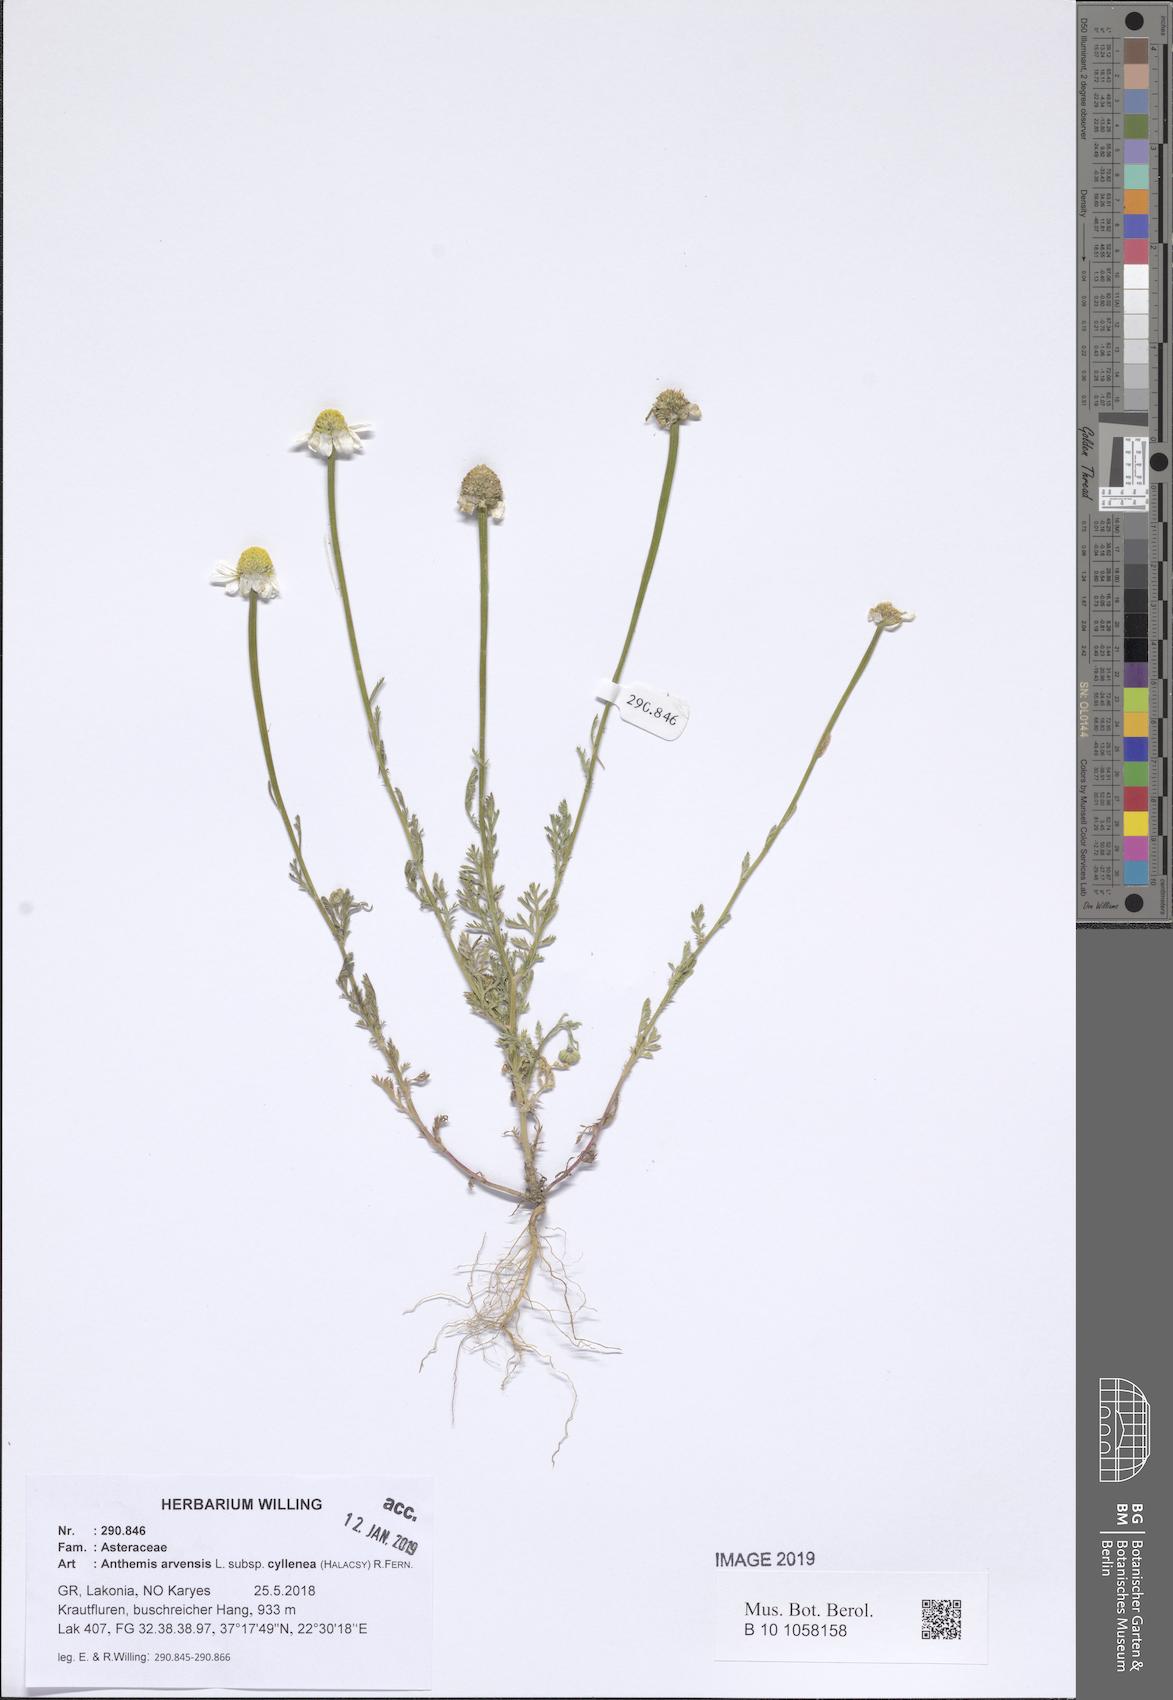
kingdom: Plantae
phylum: Tracheophyta
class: Magnoliopsida
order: Asterales
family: Asteraceae
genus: Anthemis
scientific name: Anthemis arvensis
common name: Corn chamomile
